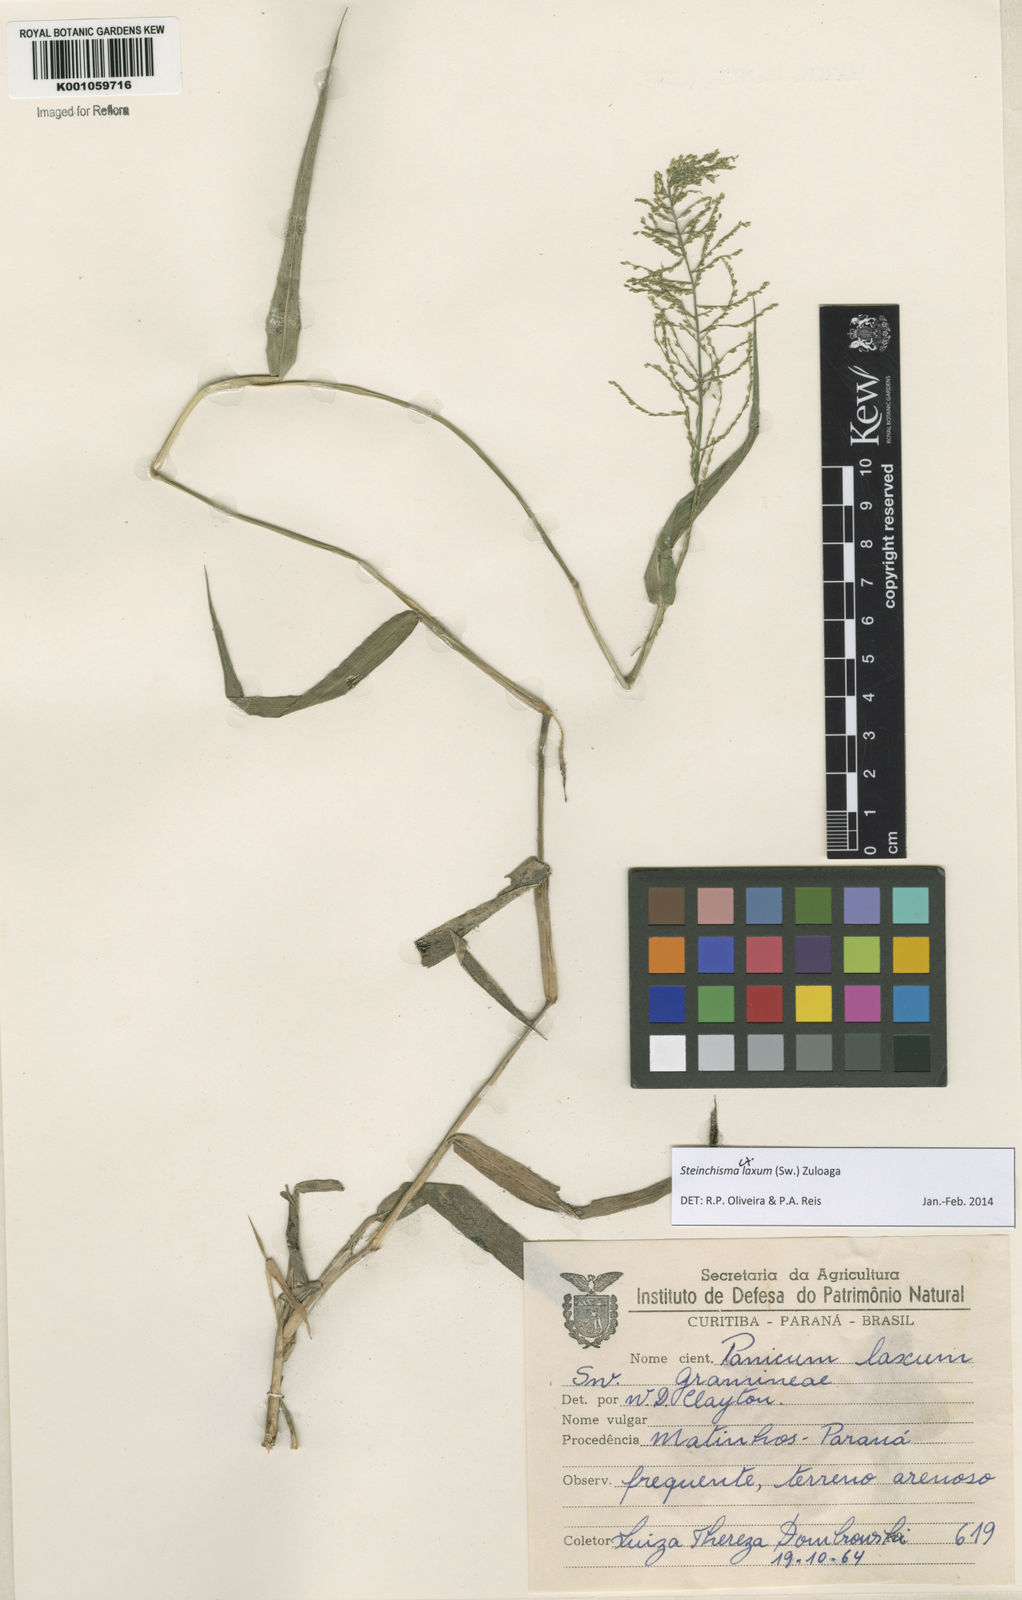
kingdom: Plantae
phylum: Tracheophyta
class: Liliopsida
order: Poales
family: Poaceae
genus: Steinchisma
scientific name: Steinchisma laxum
